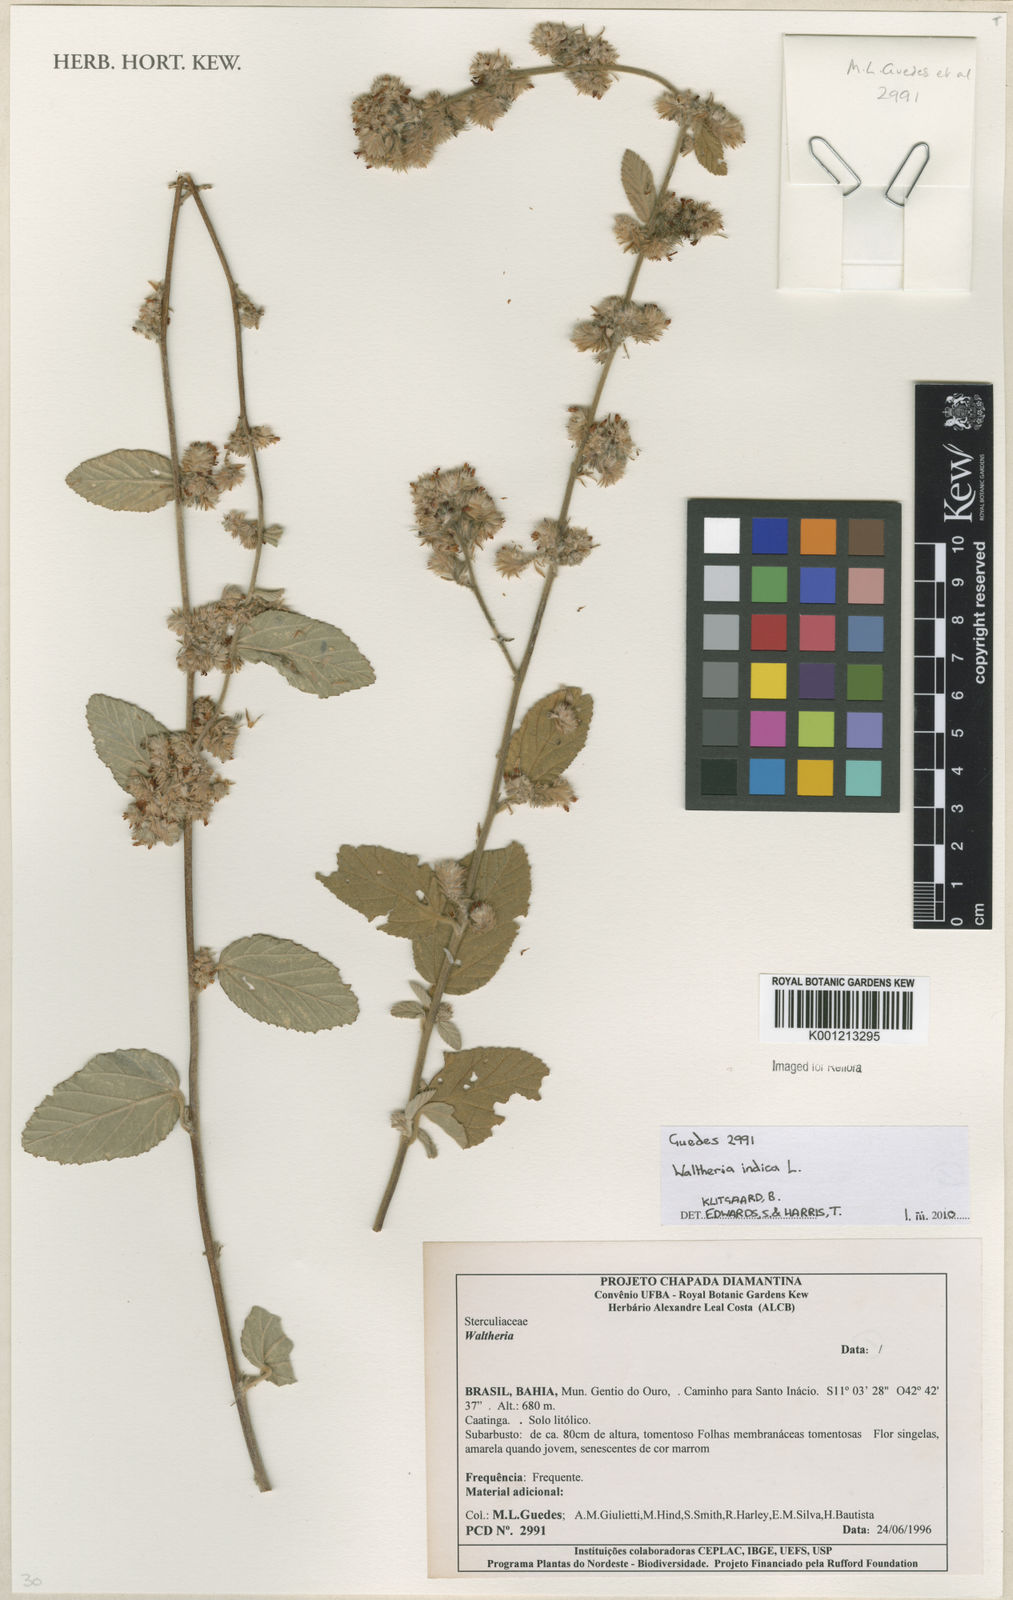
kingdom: Plantae
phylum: Tracheophyta
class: Magnoliopsida
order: Malvales
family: Malvaceae
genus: Waltheria
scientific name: Waltheria indica
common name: Leather-coat
